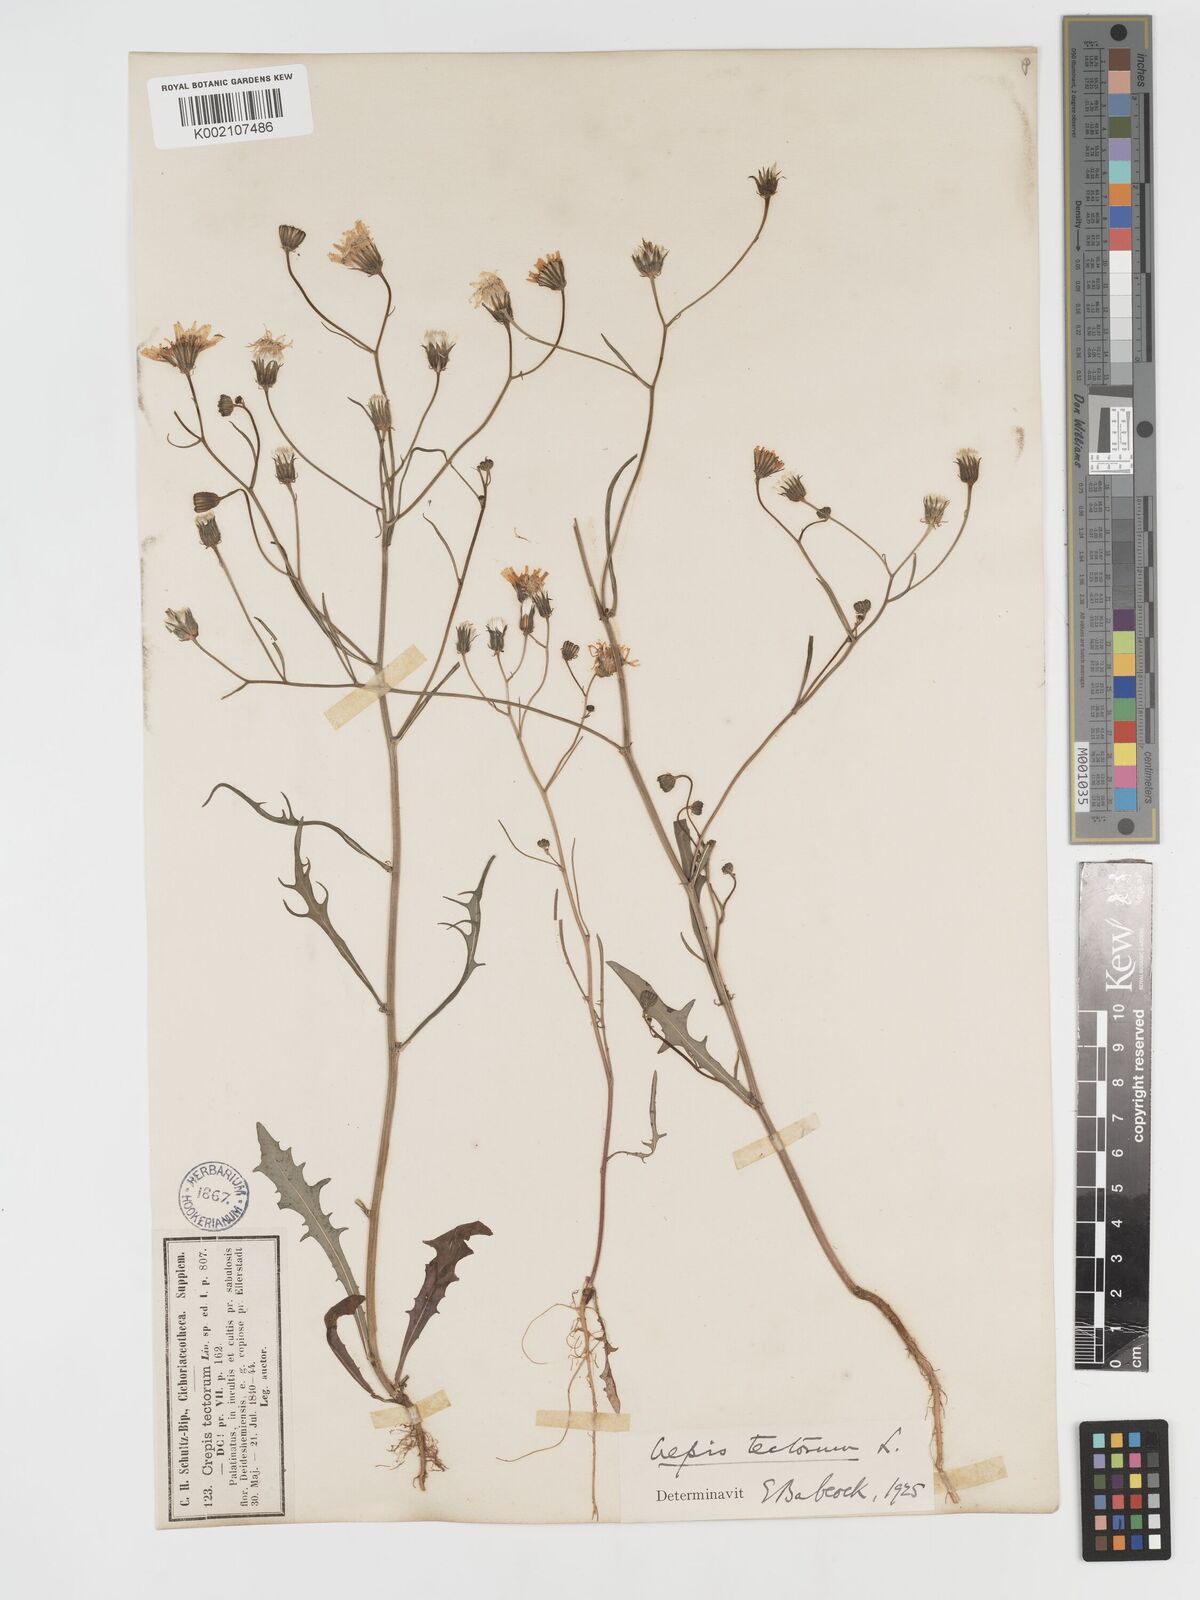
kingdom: Plantae
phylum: Tracheophyta
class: Magnoliopsida
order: Asterales
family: Asteraceae
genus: Crepis
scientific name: Crepis tectorum
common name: Narrow-leaved hawk's-beard
